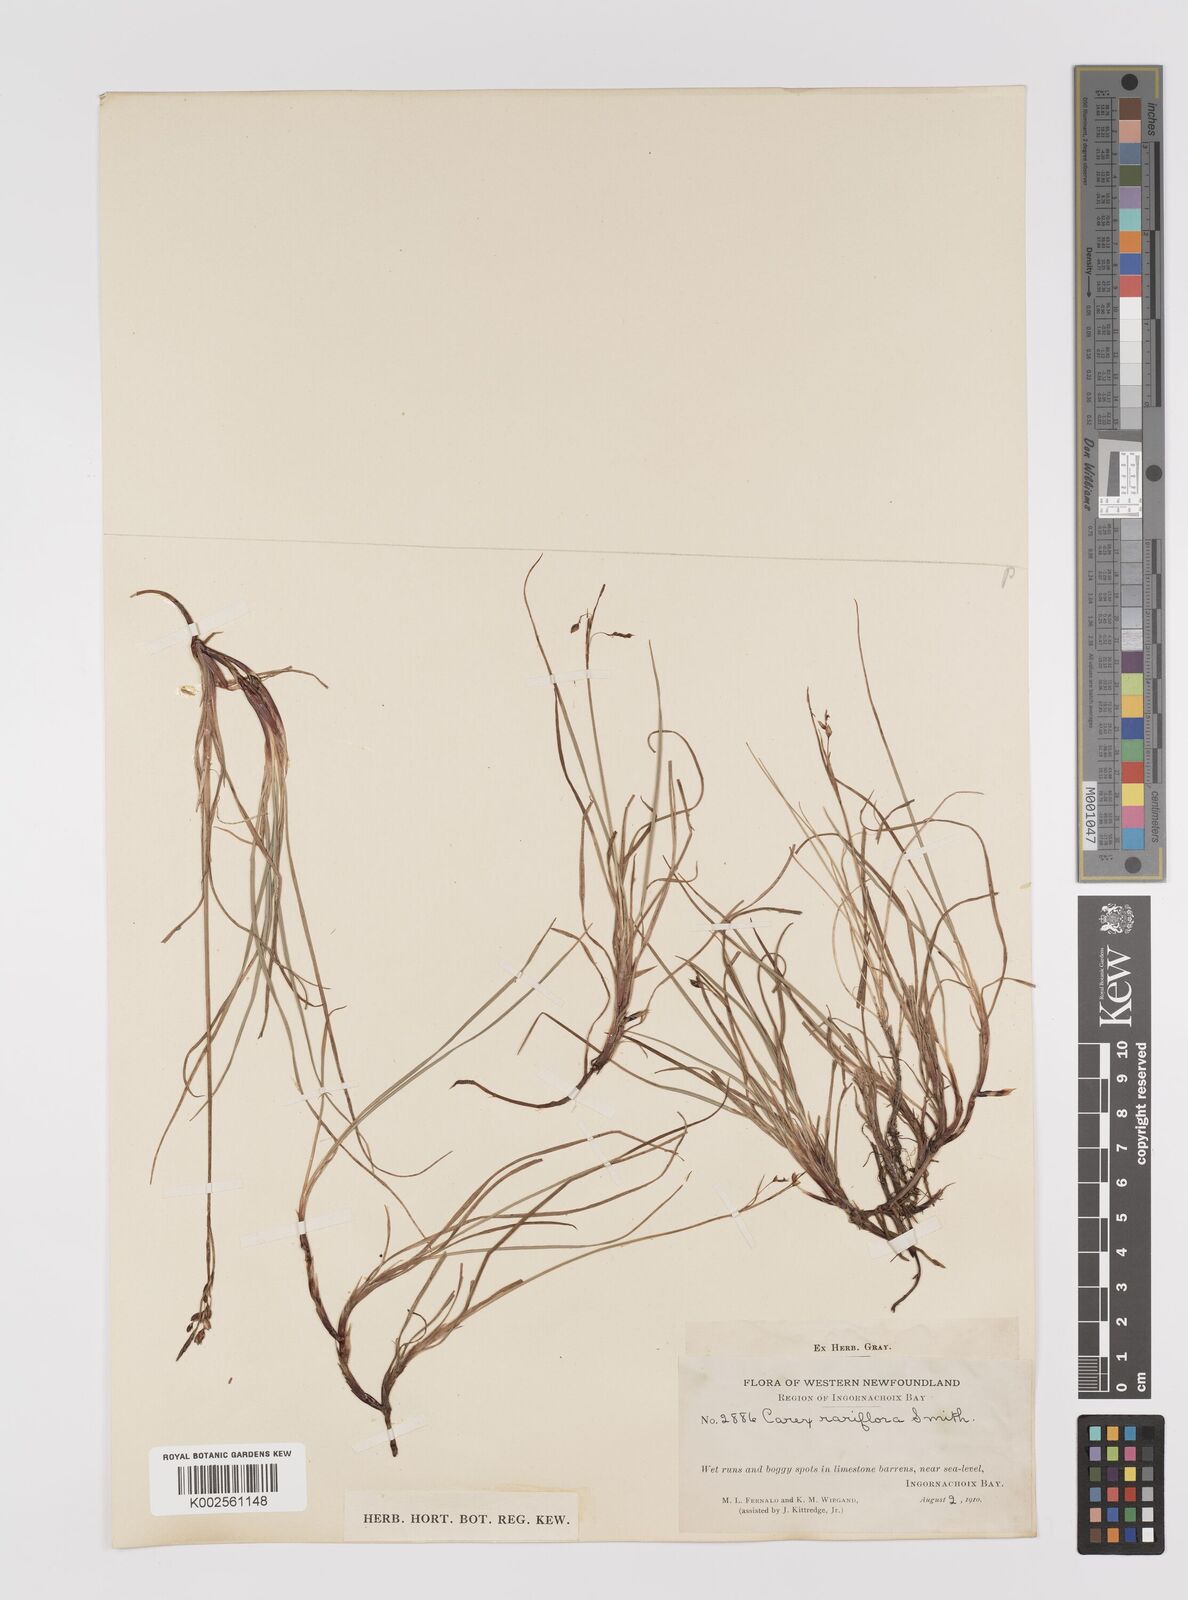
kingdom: Plantae
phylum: Tracheophyta
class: Liliopsida
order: Poales
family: Cyperaceae
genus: Carex
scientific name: Carex rariflora
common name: Loose-flowered alpine sedge
